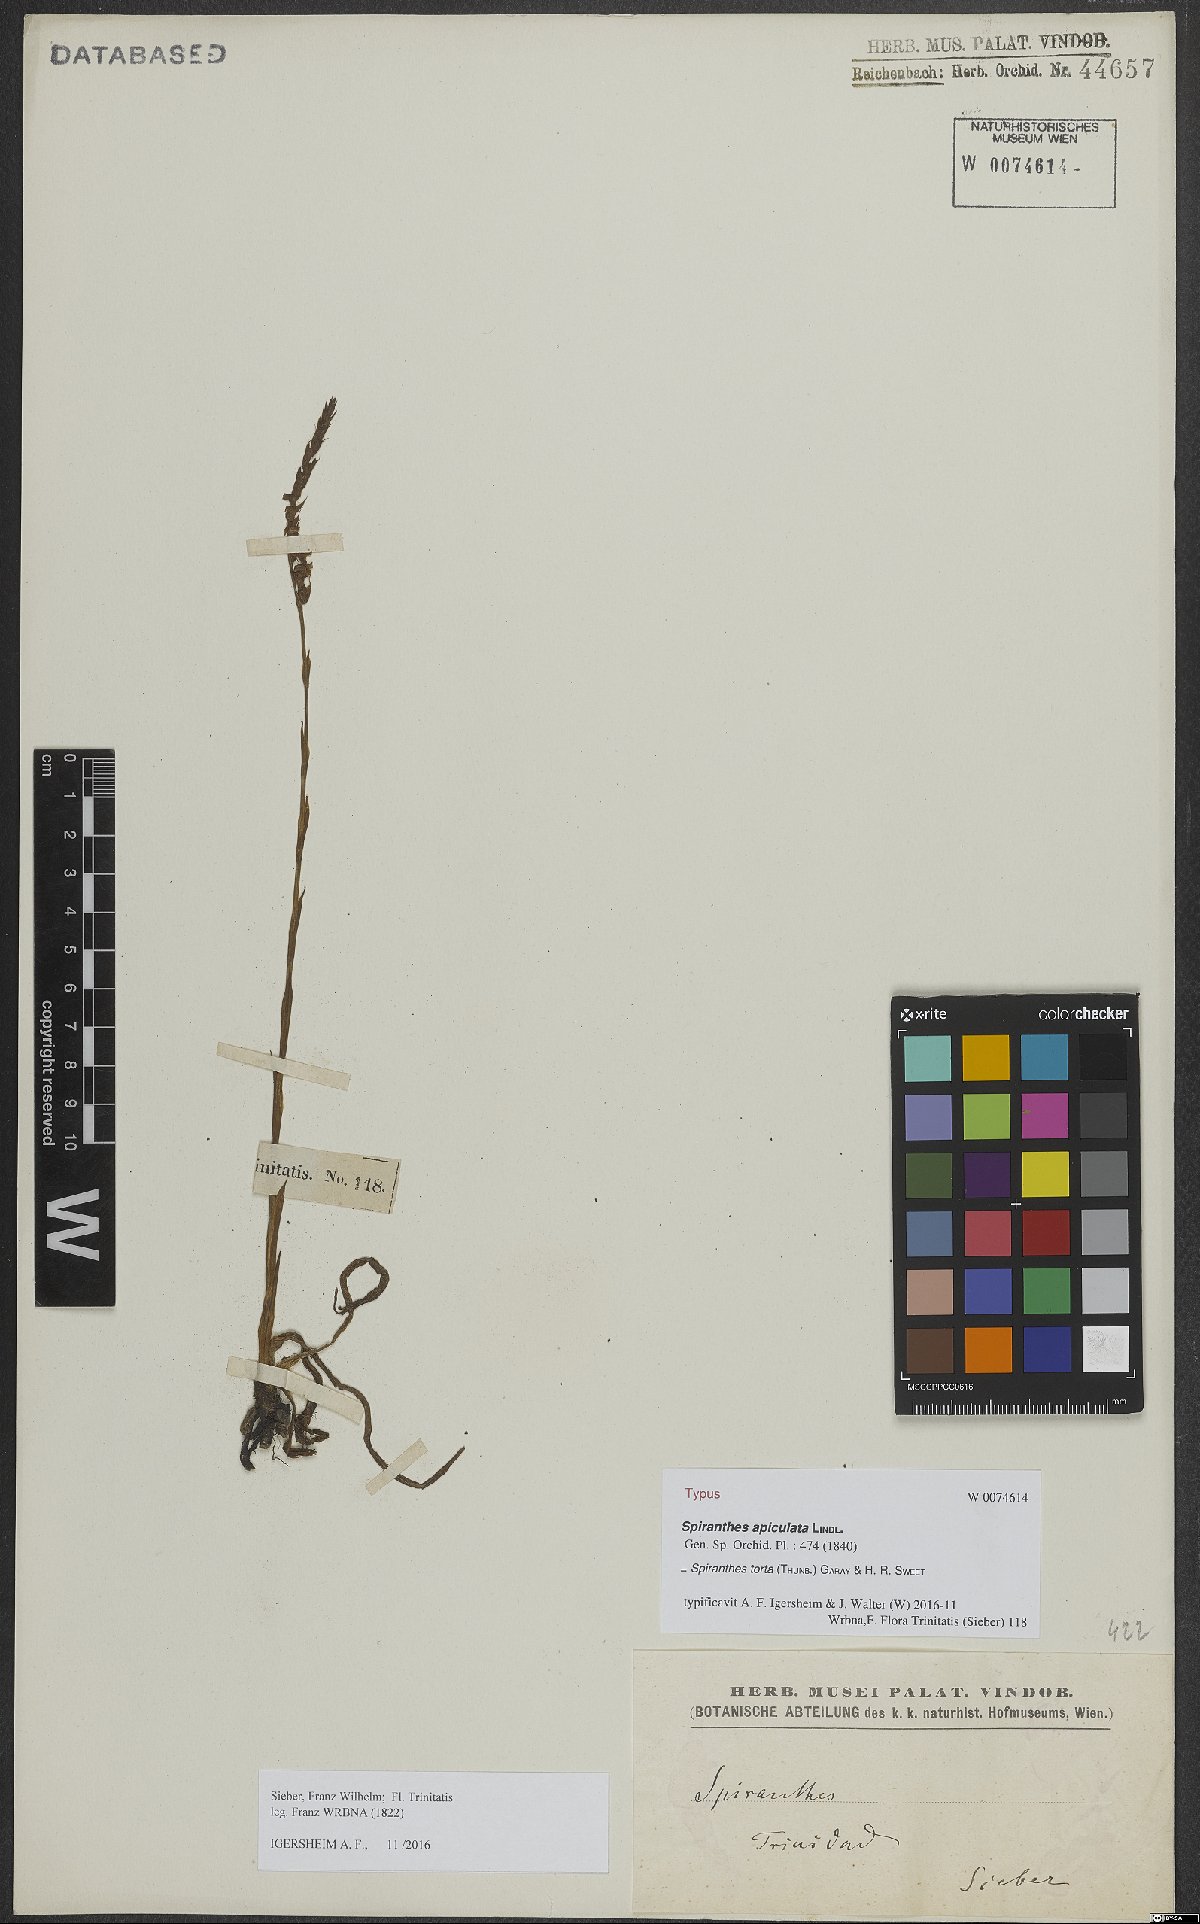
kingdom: Plantae
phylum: Tracheophyta
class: Liliopsida
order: Asparagales
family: Orchidaceae
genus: Spiranthes
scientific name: Spiranthes torta
